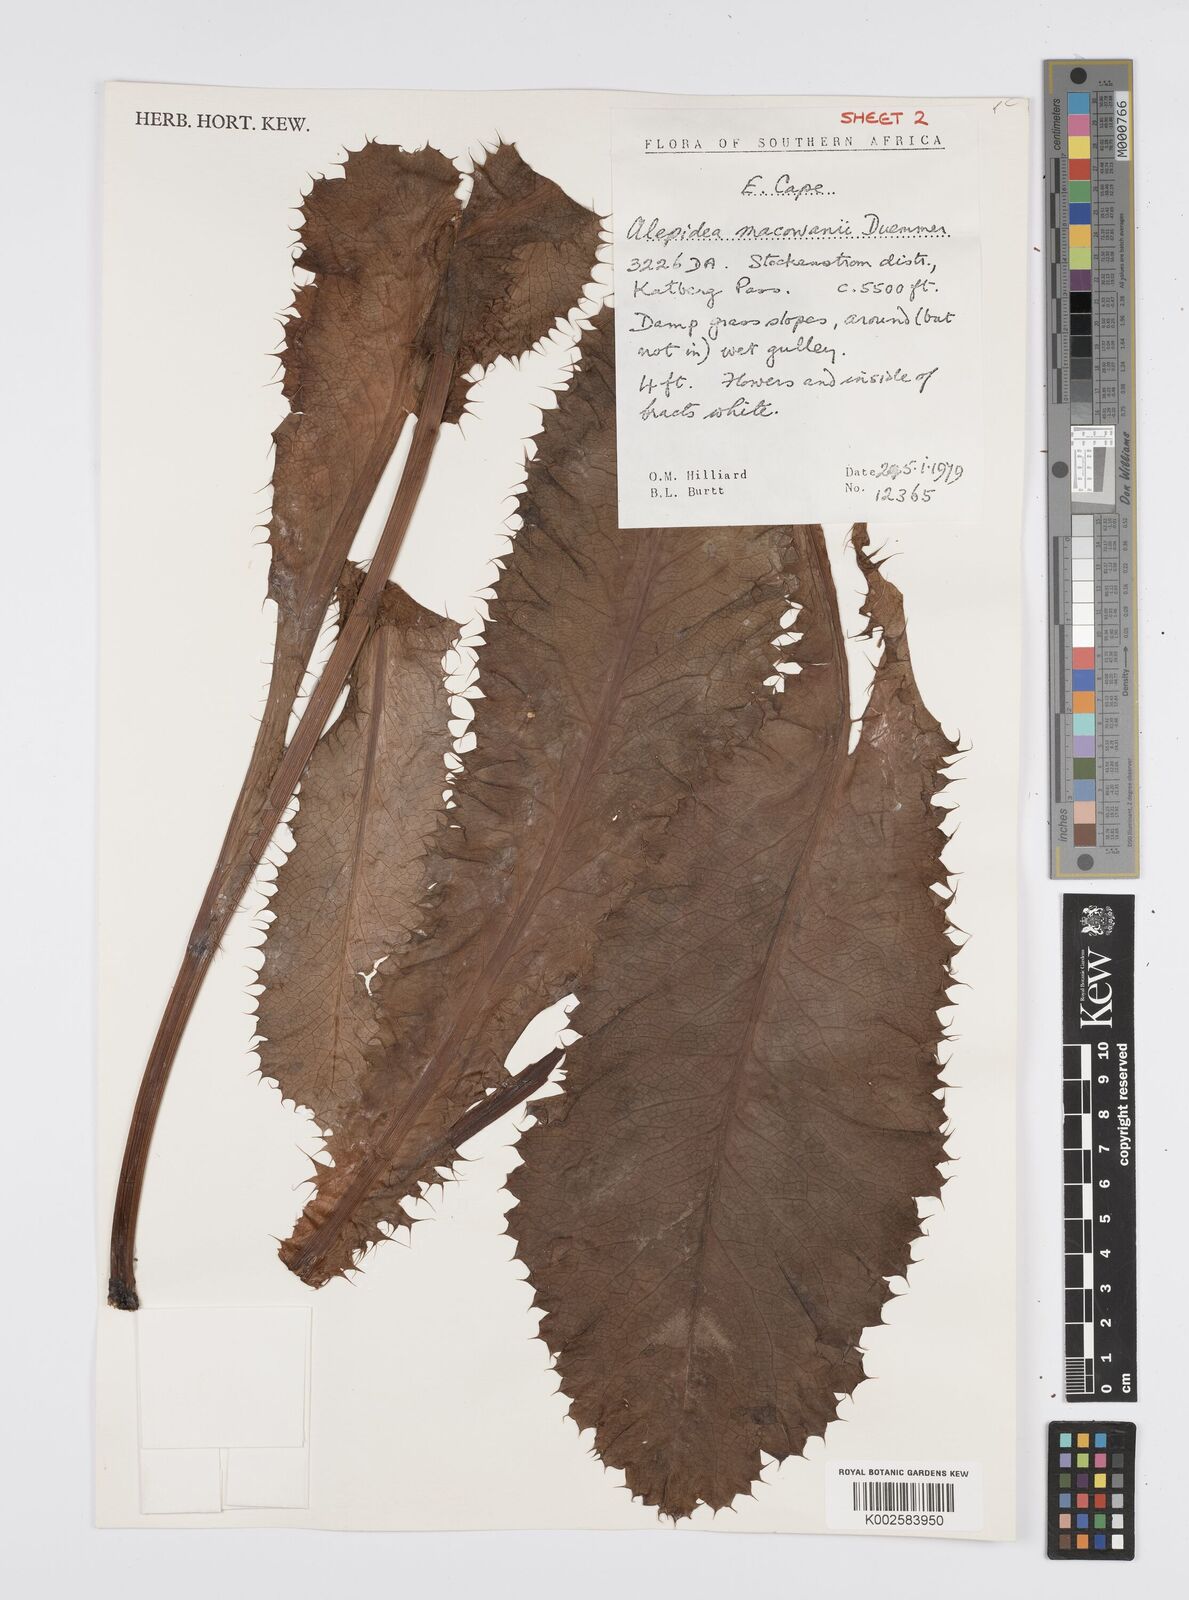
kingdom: Plantae
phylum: Tracheophyta
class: Magnoliopsida
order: Apiales
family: Apiaceae
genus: Alepidea
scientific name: Alepidea macowanii
